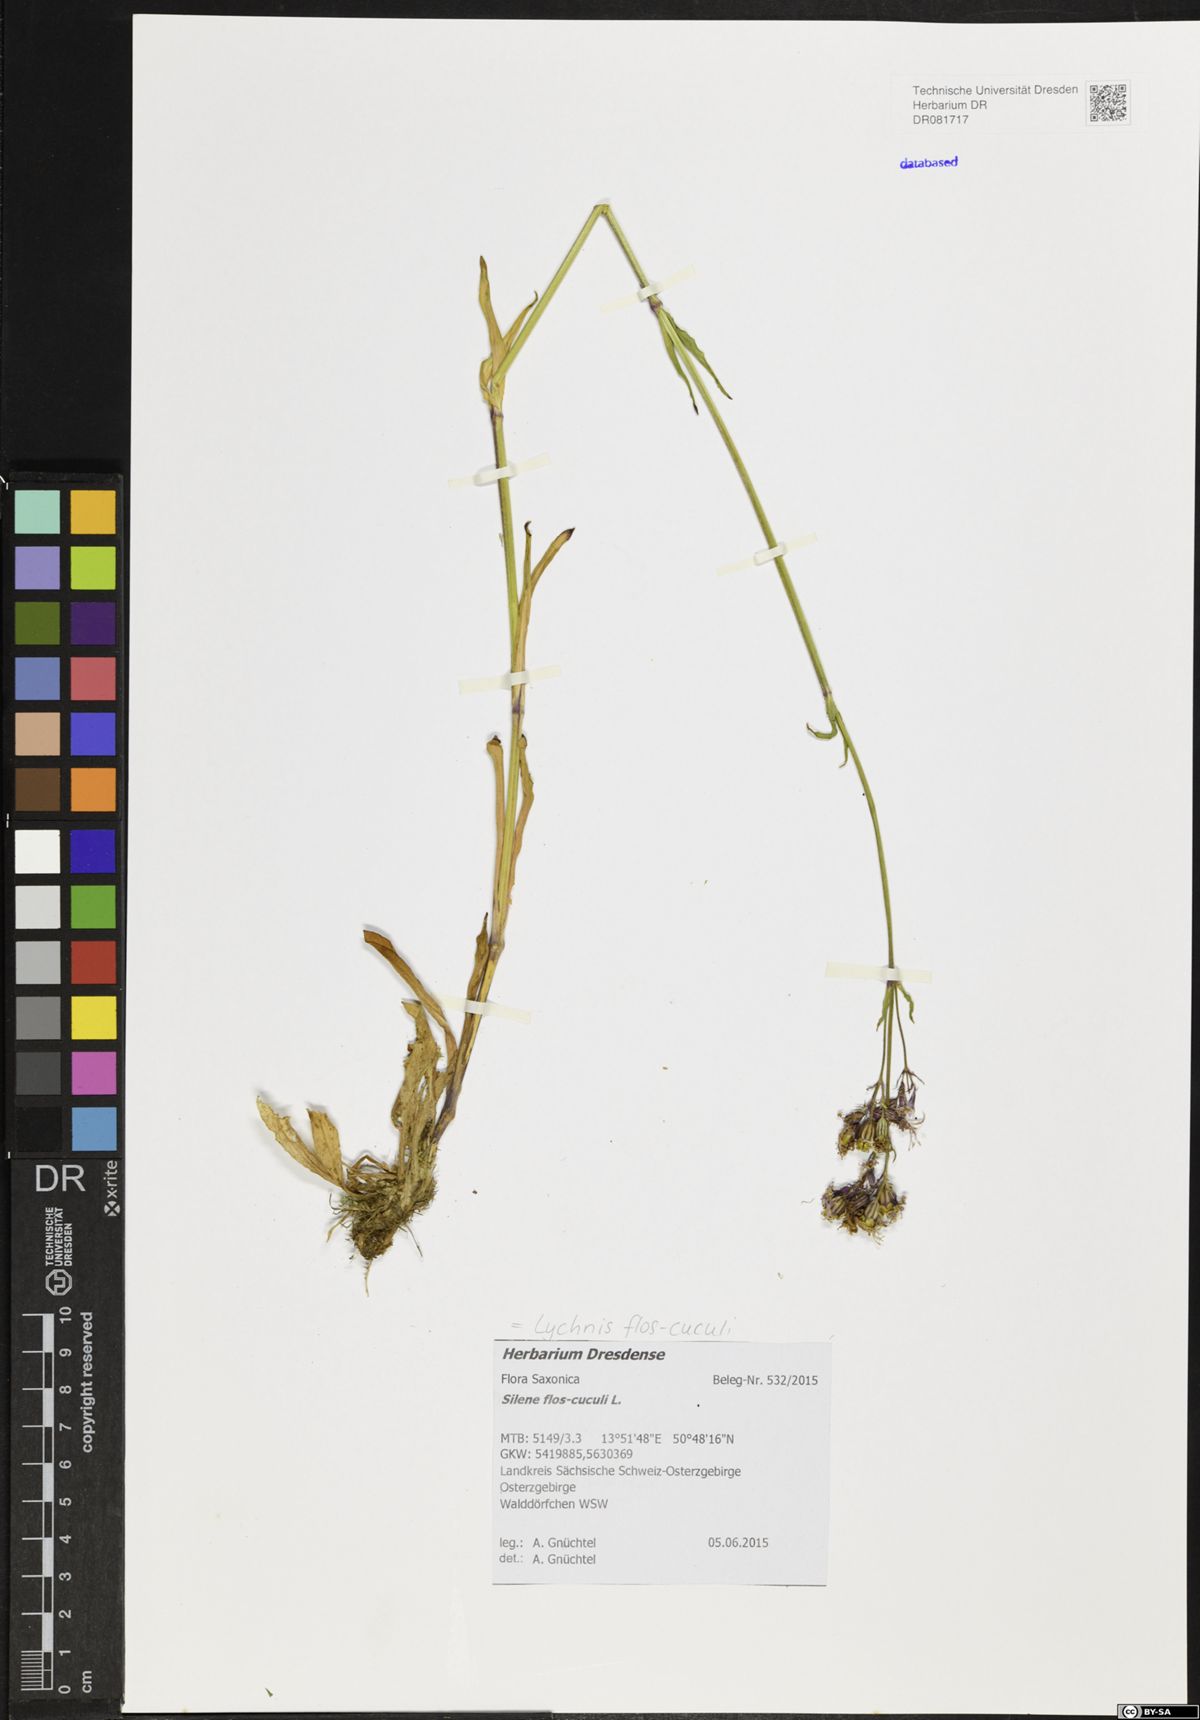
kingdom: Plantae
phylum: Tracheophyta
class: Magnoliopsida
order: Caryophyllales
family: Caryophyllaceae
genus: Silene
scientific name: Silene flos-cuculi
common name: Ragged-robin
